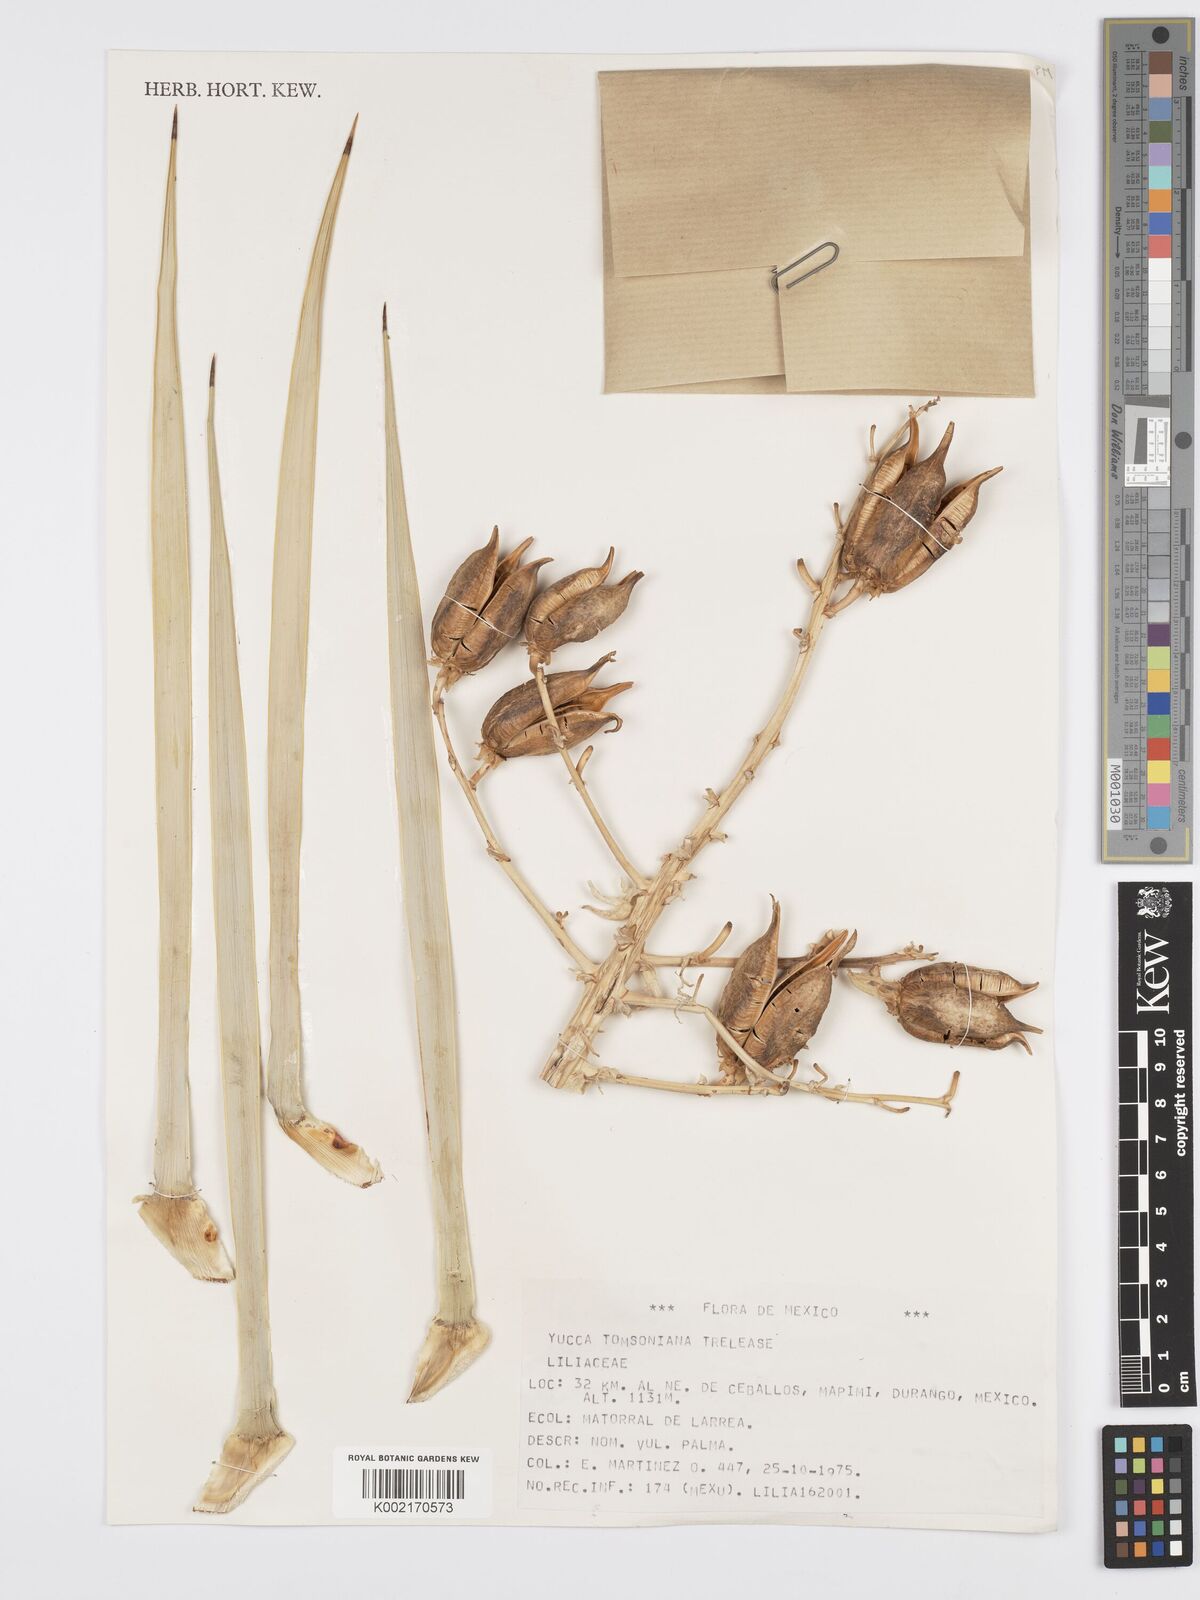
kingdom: Plantae
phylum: Tracheophyta
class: Liliopsida
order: Asparagales
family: Asparagaceae
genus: Yucca
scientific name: Yucca thompsoniana
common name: Trans-pecos yucca
